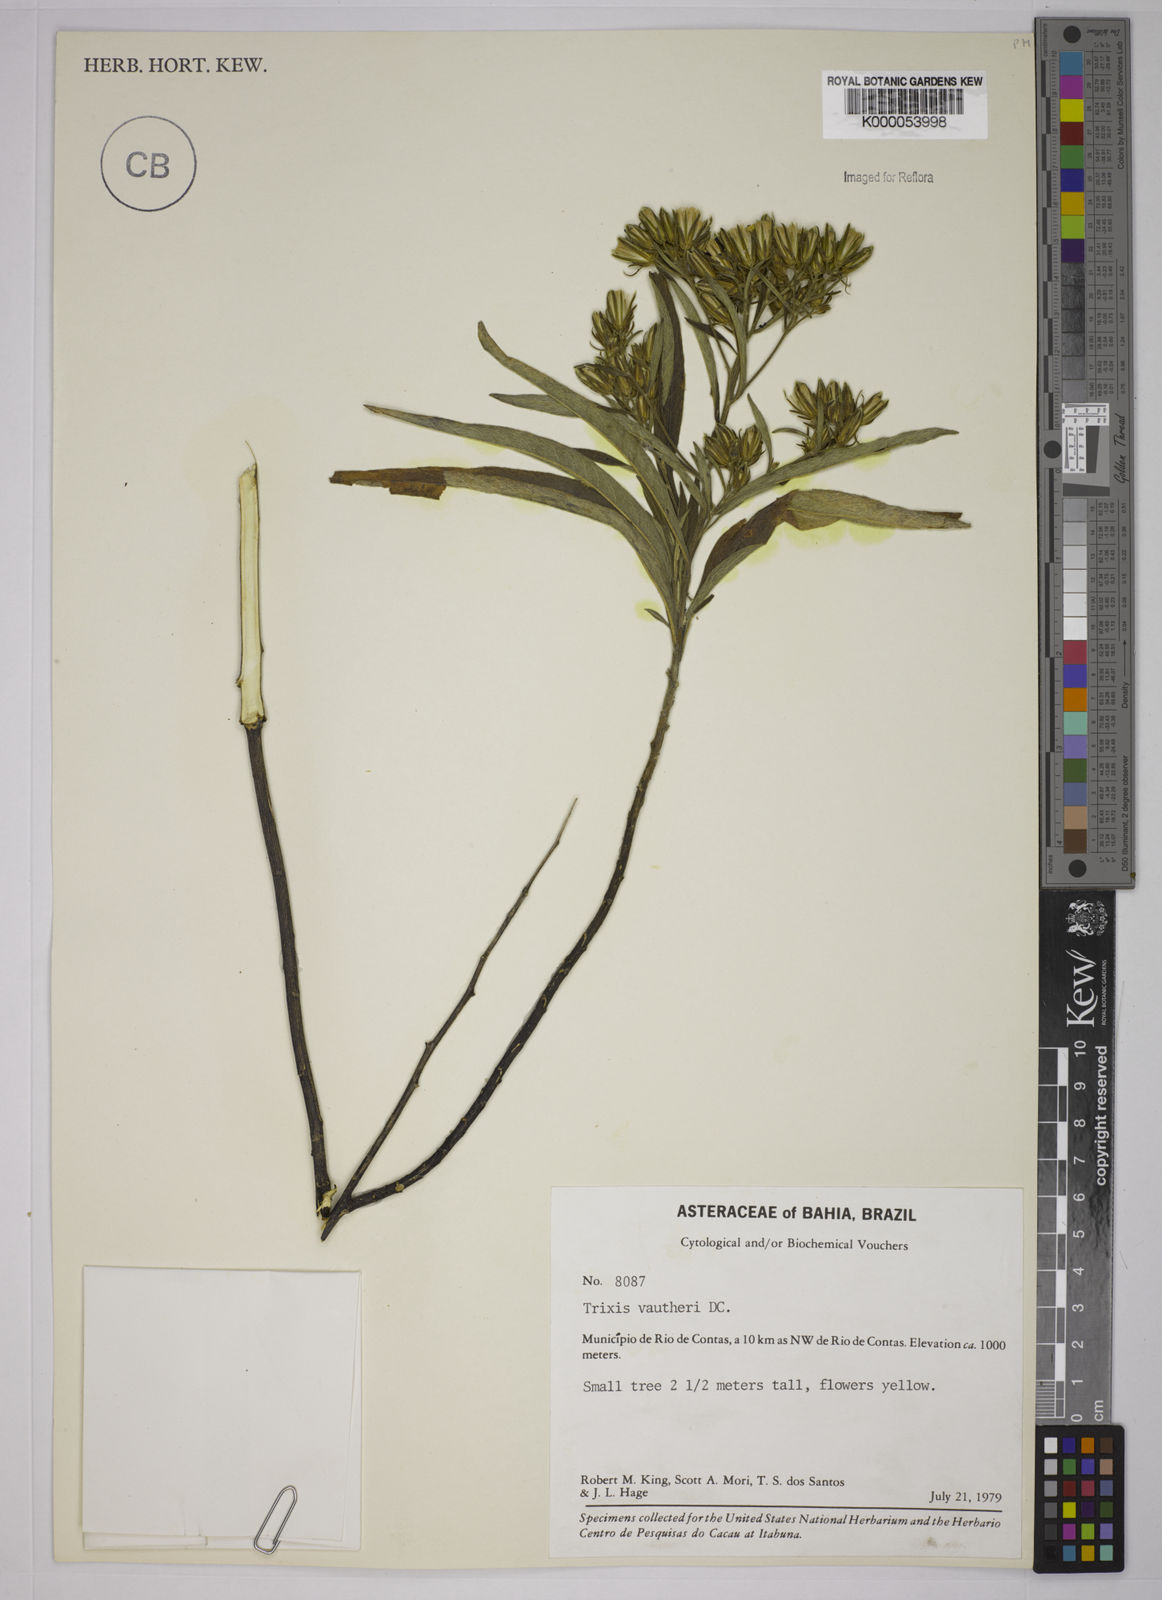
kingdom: Plantae
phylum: Tracheophyta
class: Magnoliopsida
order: Asterales
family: Asteraceae
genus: Trixis
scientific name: Trixis vauthieri
